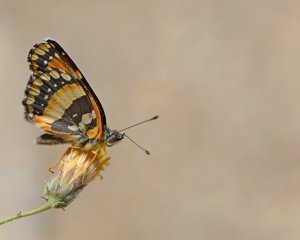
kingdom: Animalia
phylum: Arthropoda
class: Insecta
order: Lepidoptera
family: Nymphalidae
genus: Chlosyne
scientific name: Chlosyne californica
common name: California Patch
